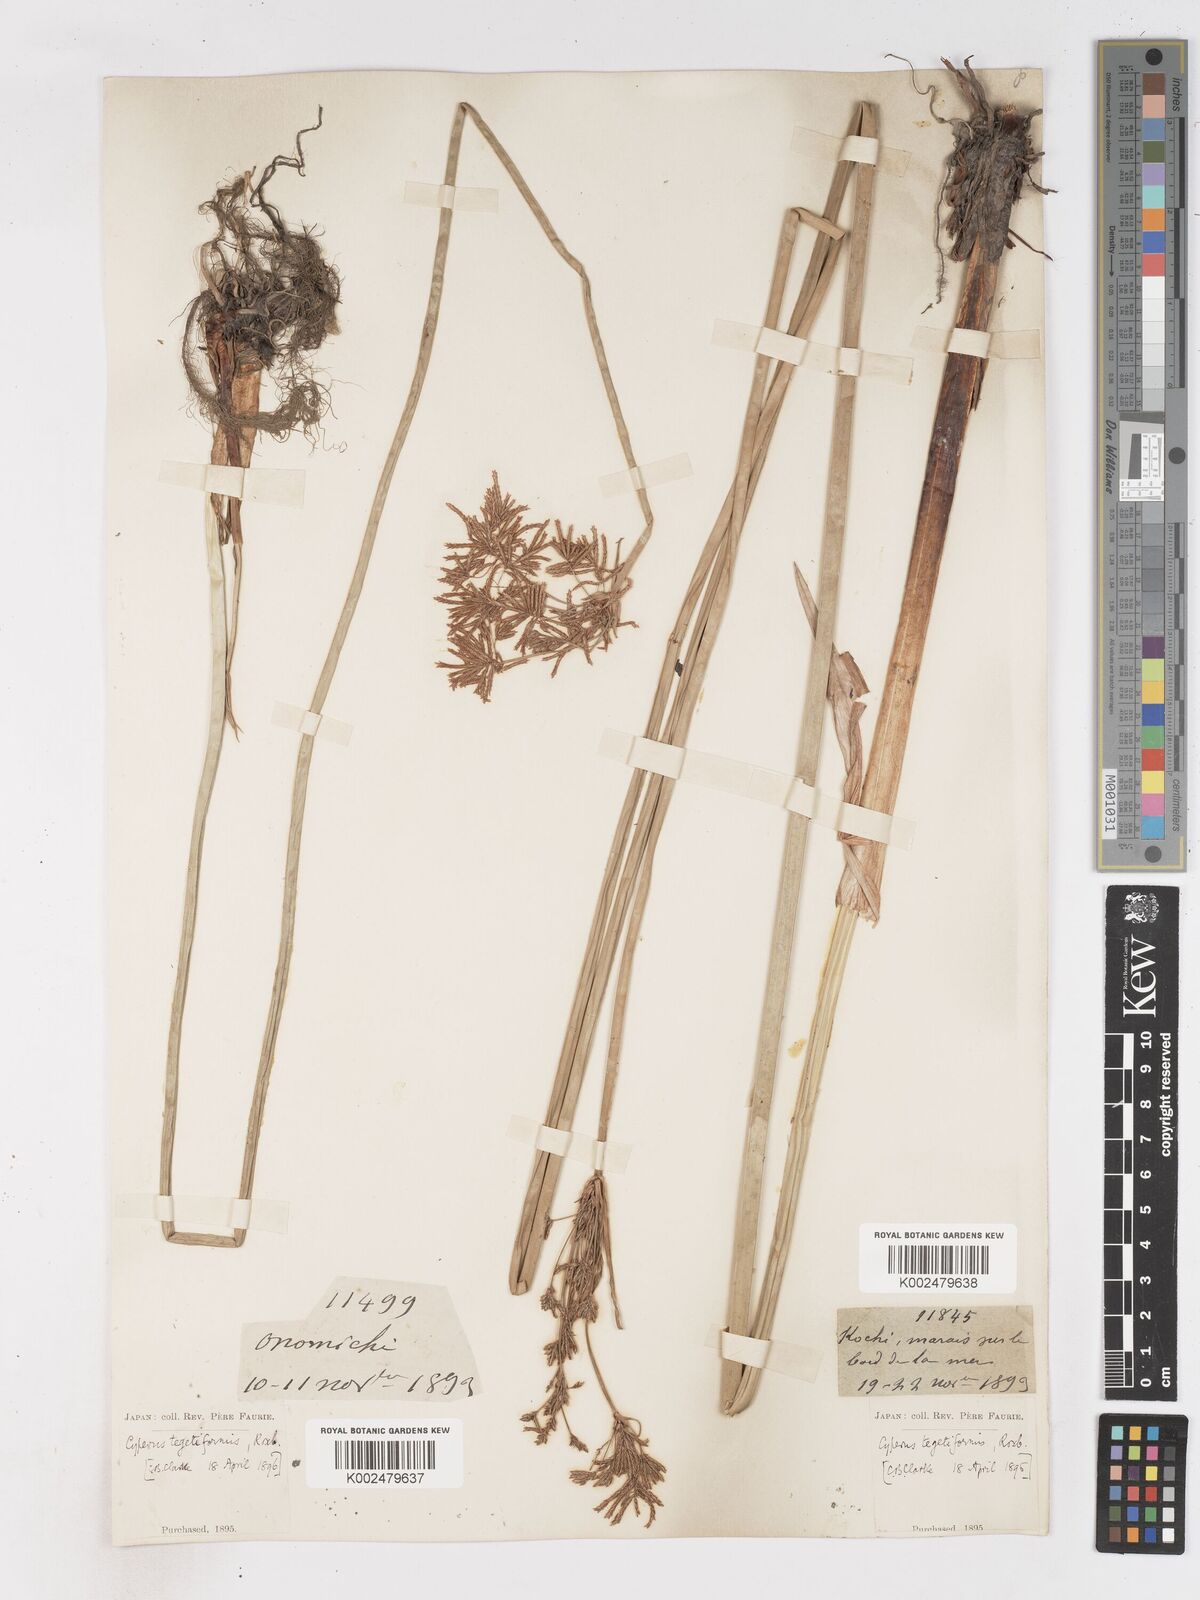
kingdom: Plantae
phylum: Tracheophyta
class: Liliopsida
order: Poales
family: Cyperaceae
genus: Cyperus
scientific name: Cyperus corymbosus
